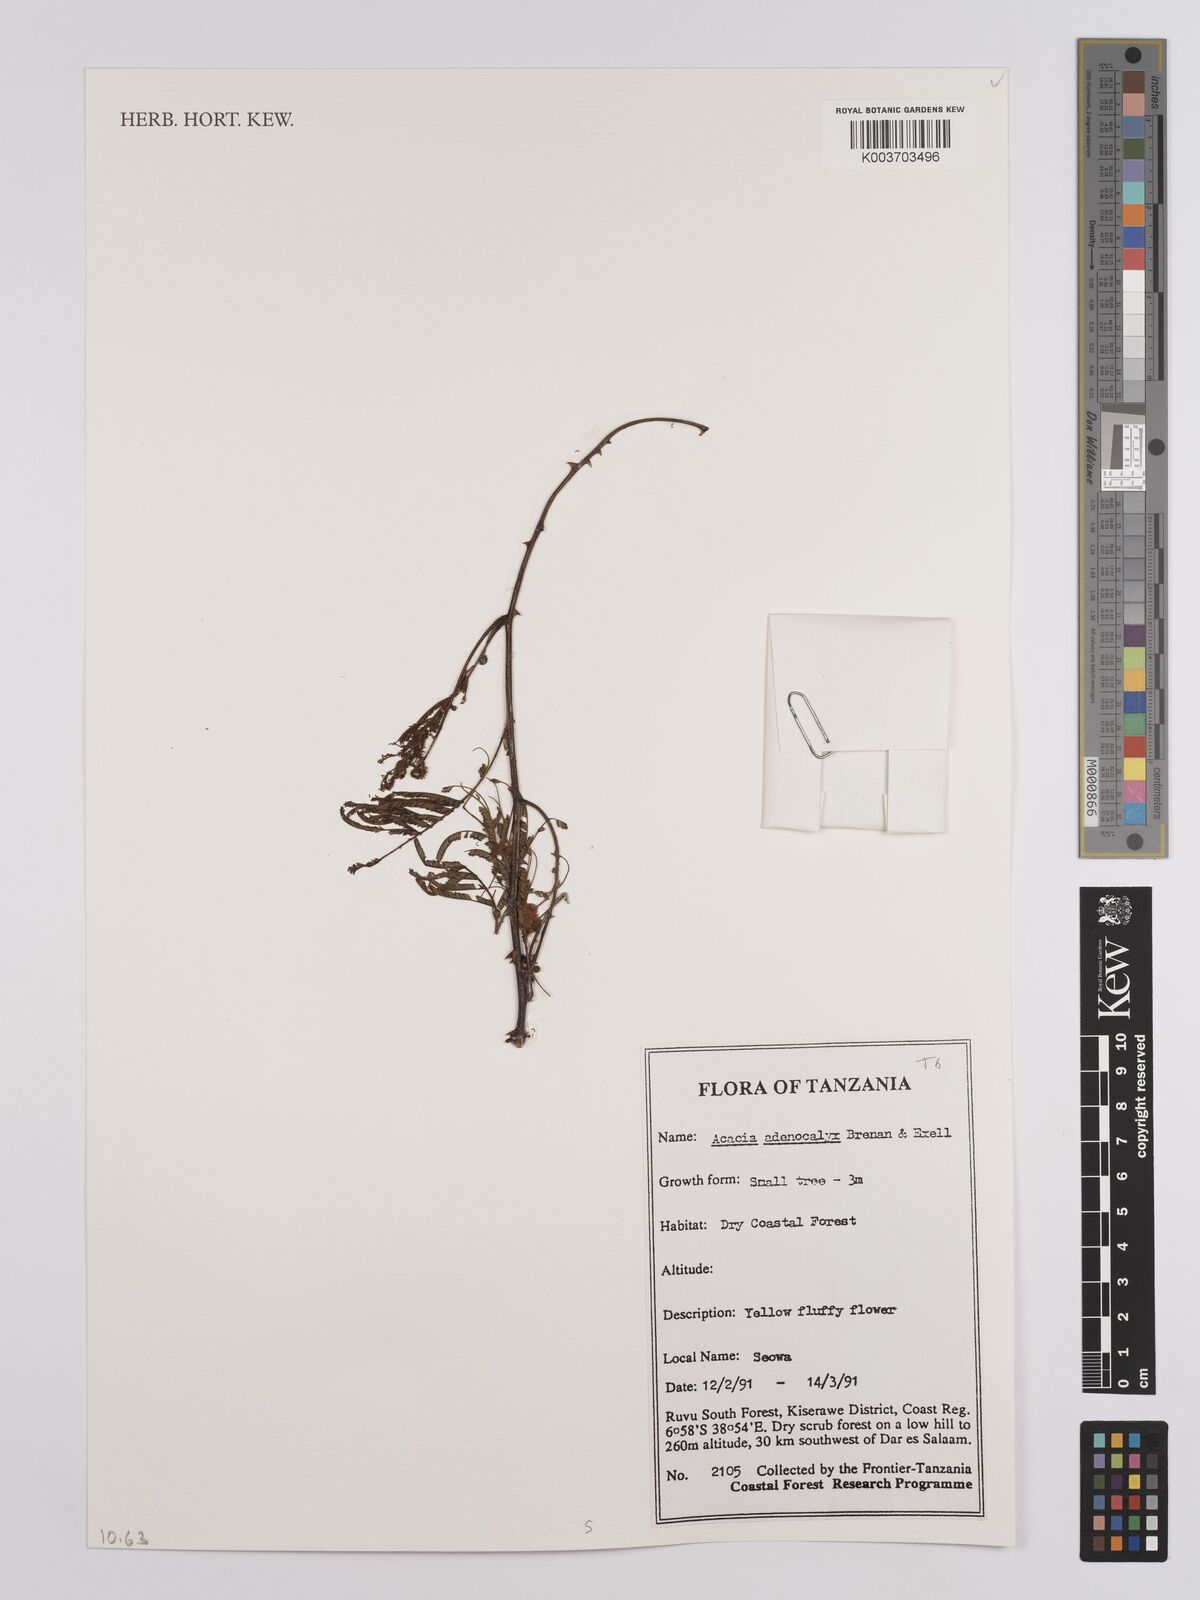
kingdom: Plantae
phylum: Tracheophyta
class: Magnoliopsida
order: Fabales
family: Fabaceae
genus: Senegalia
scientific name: Senegalia adenocalyx
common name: Pfurura
